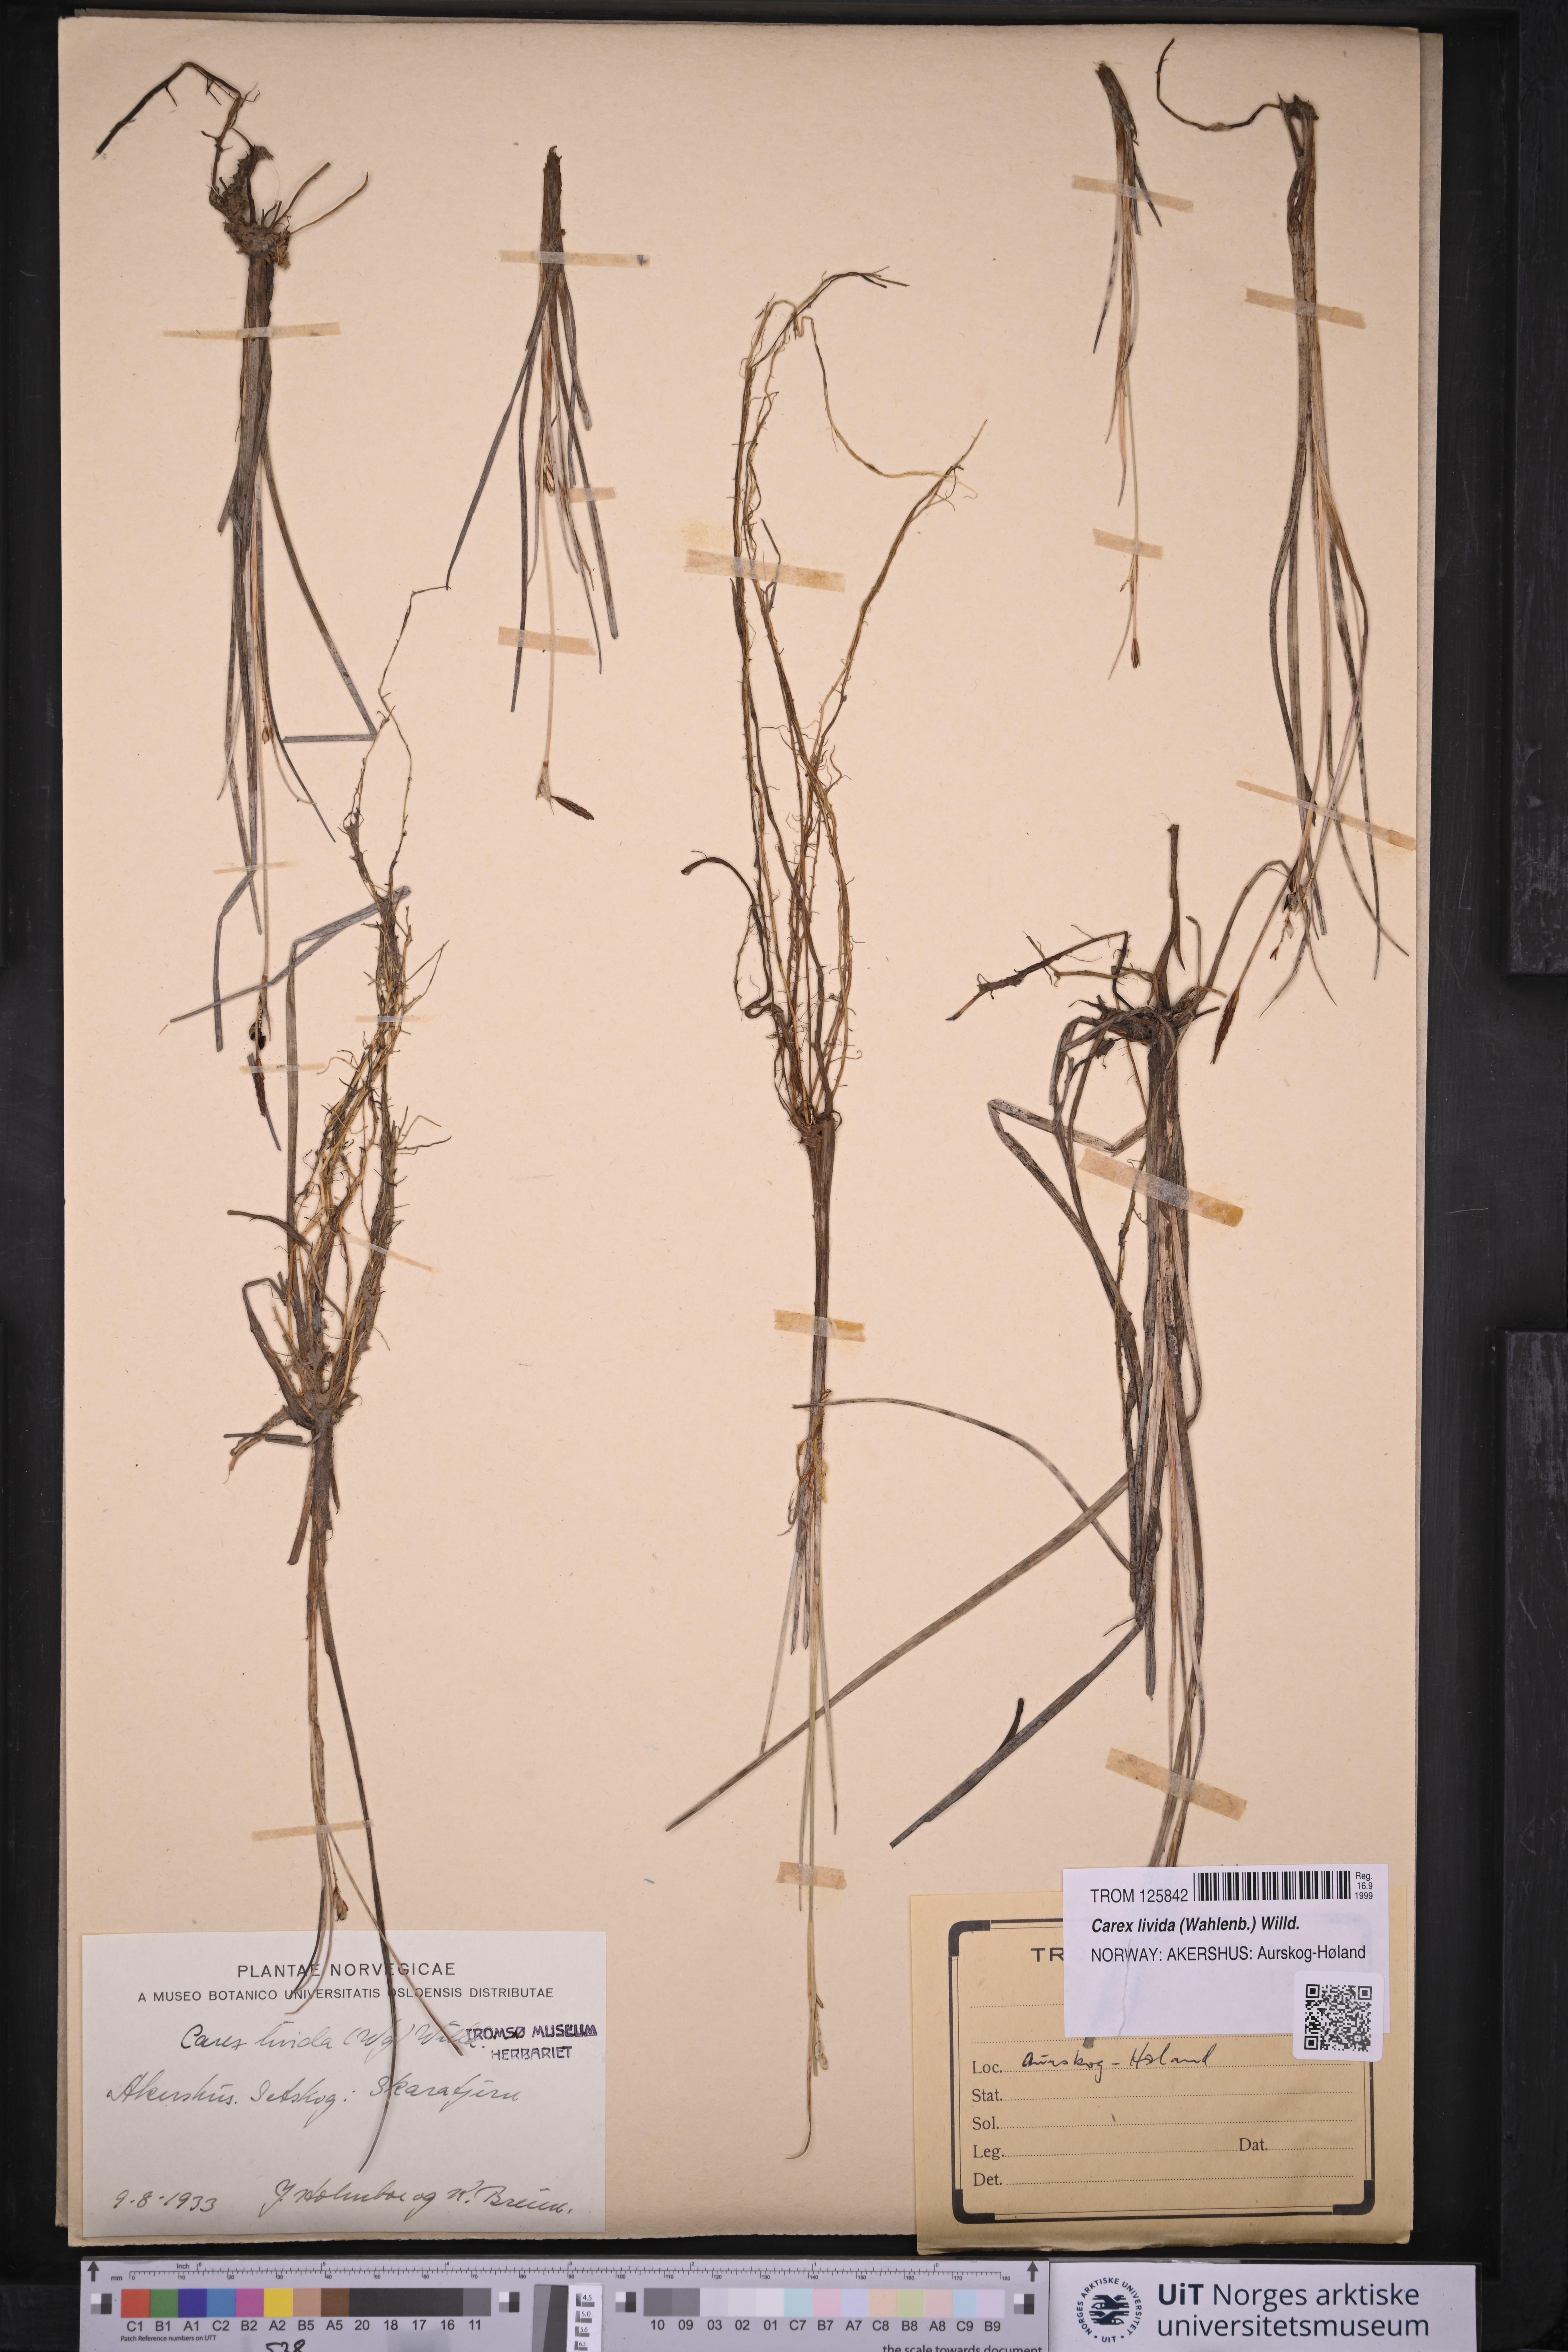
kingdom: Plantae
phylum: Tracheophyta
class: Liliopsida
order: Poales
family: Cyperaceae
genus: Carex
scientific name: Carex livida
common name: Livid sedge
